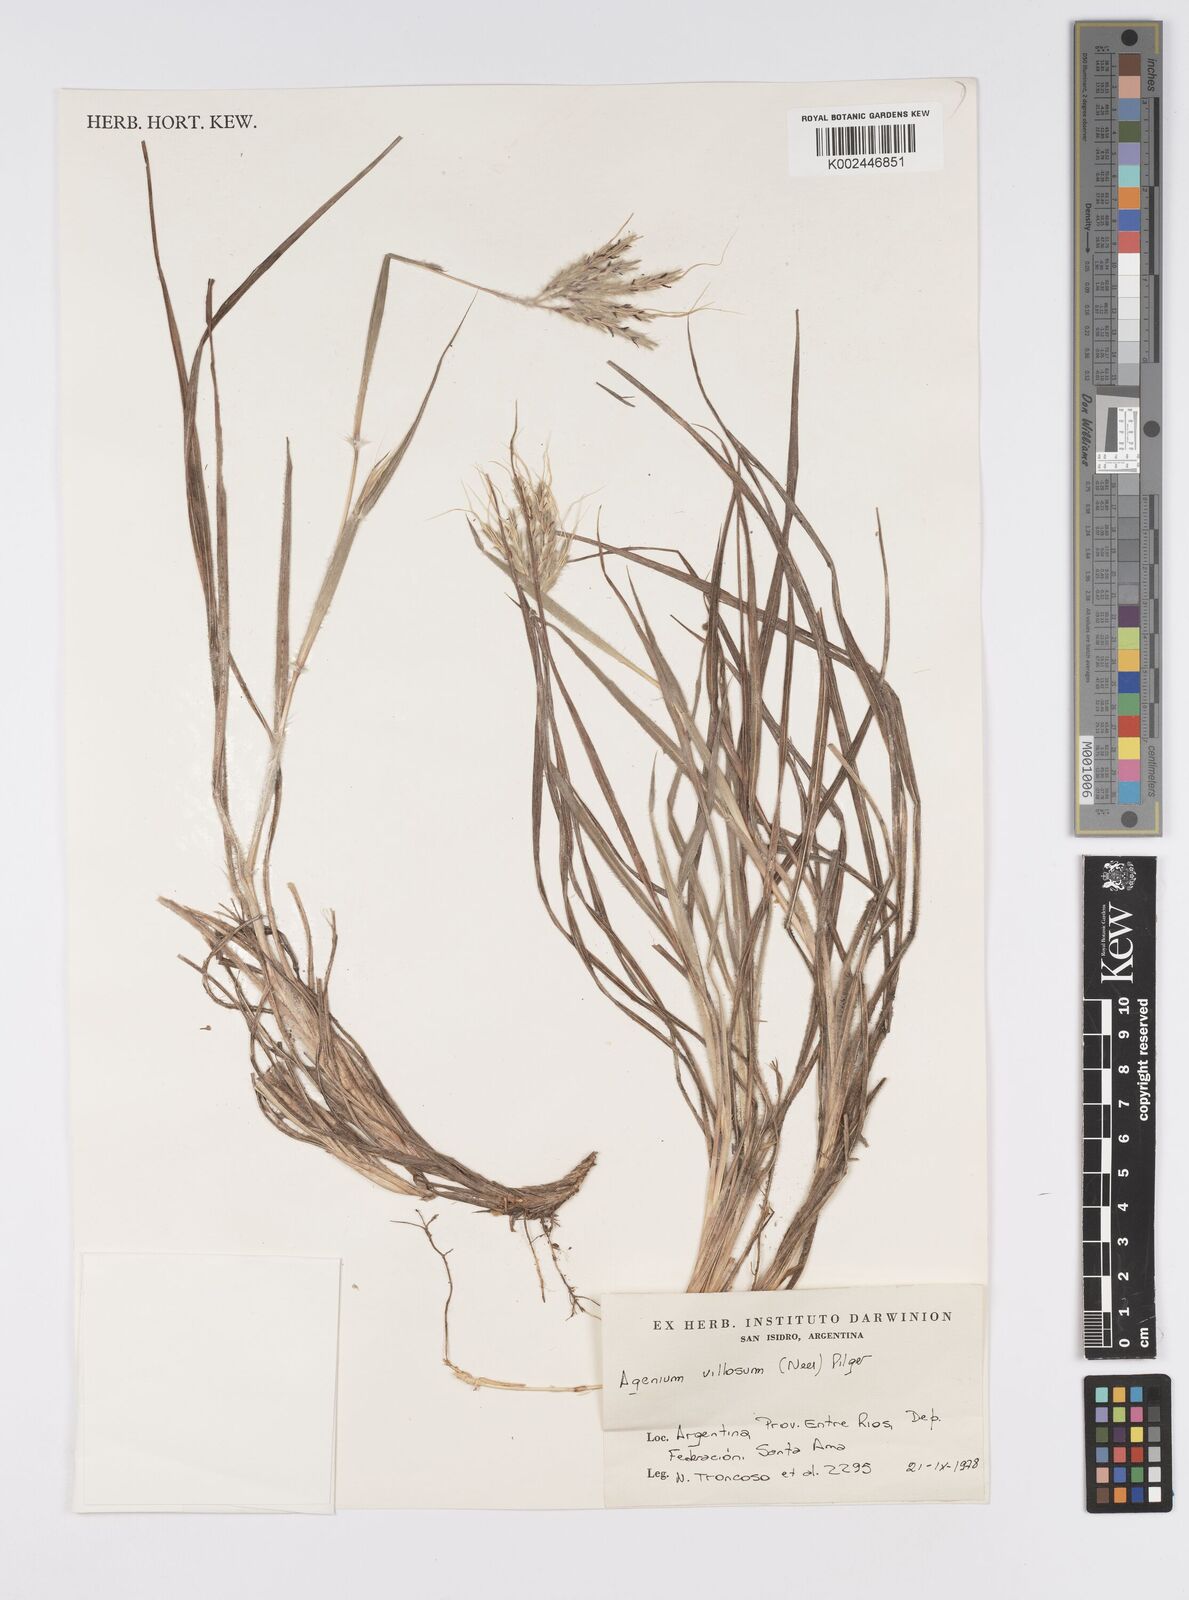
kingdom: Plantae
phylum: Tracheophyta
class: Liliopsida
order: Poales
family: Poaceae
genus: Agenium
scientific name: Agenium villosum
